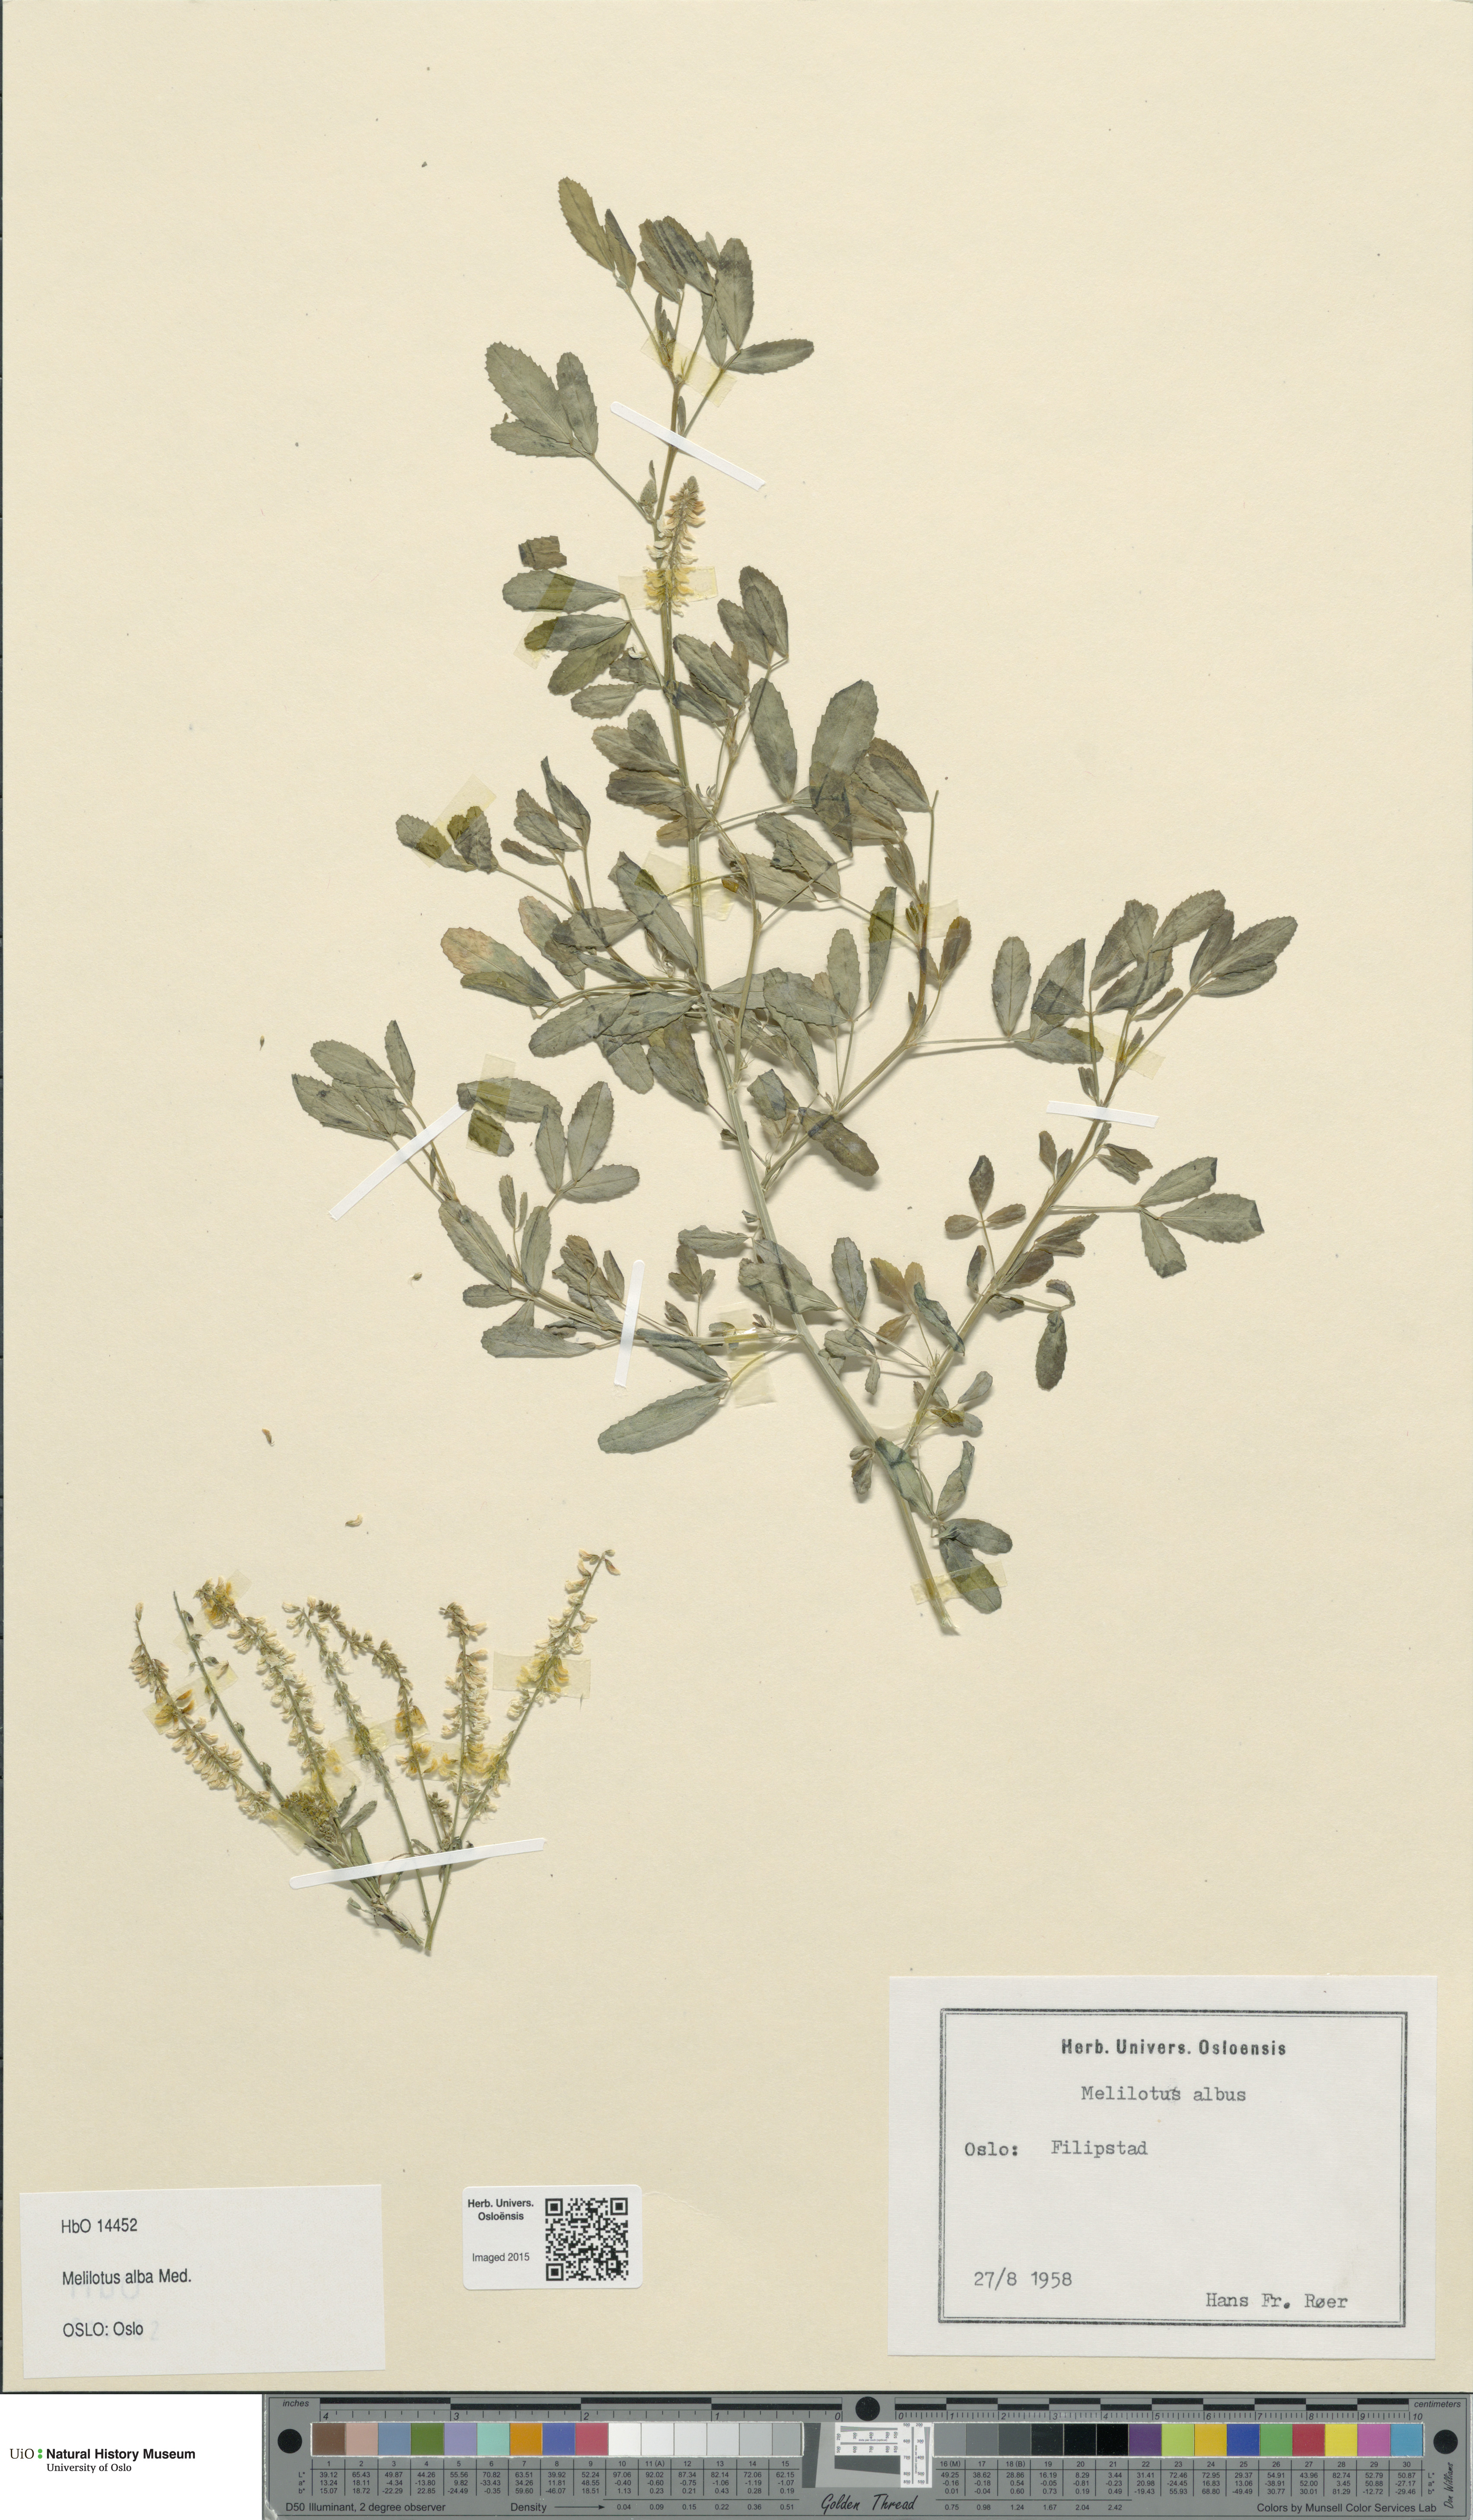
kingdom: Plantae
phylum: Tracheophyta
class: Magnoliopsida
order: Fabales
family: Fabaceae
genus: Melilotus
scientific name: Melilotus albus
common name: White melilot
